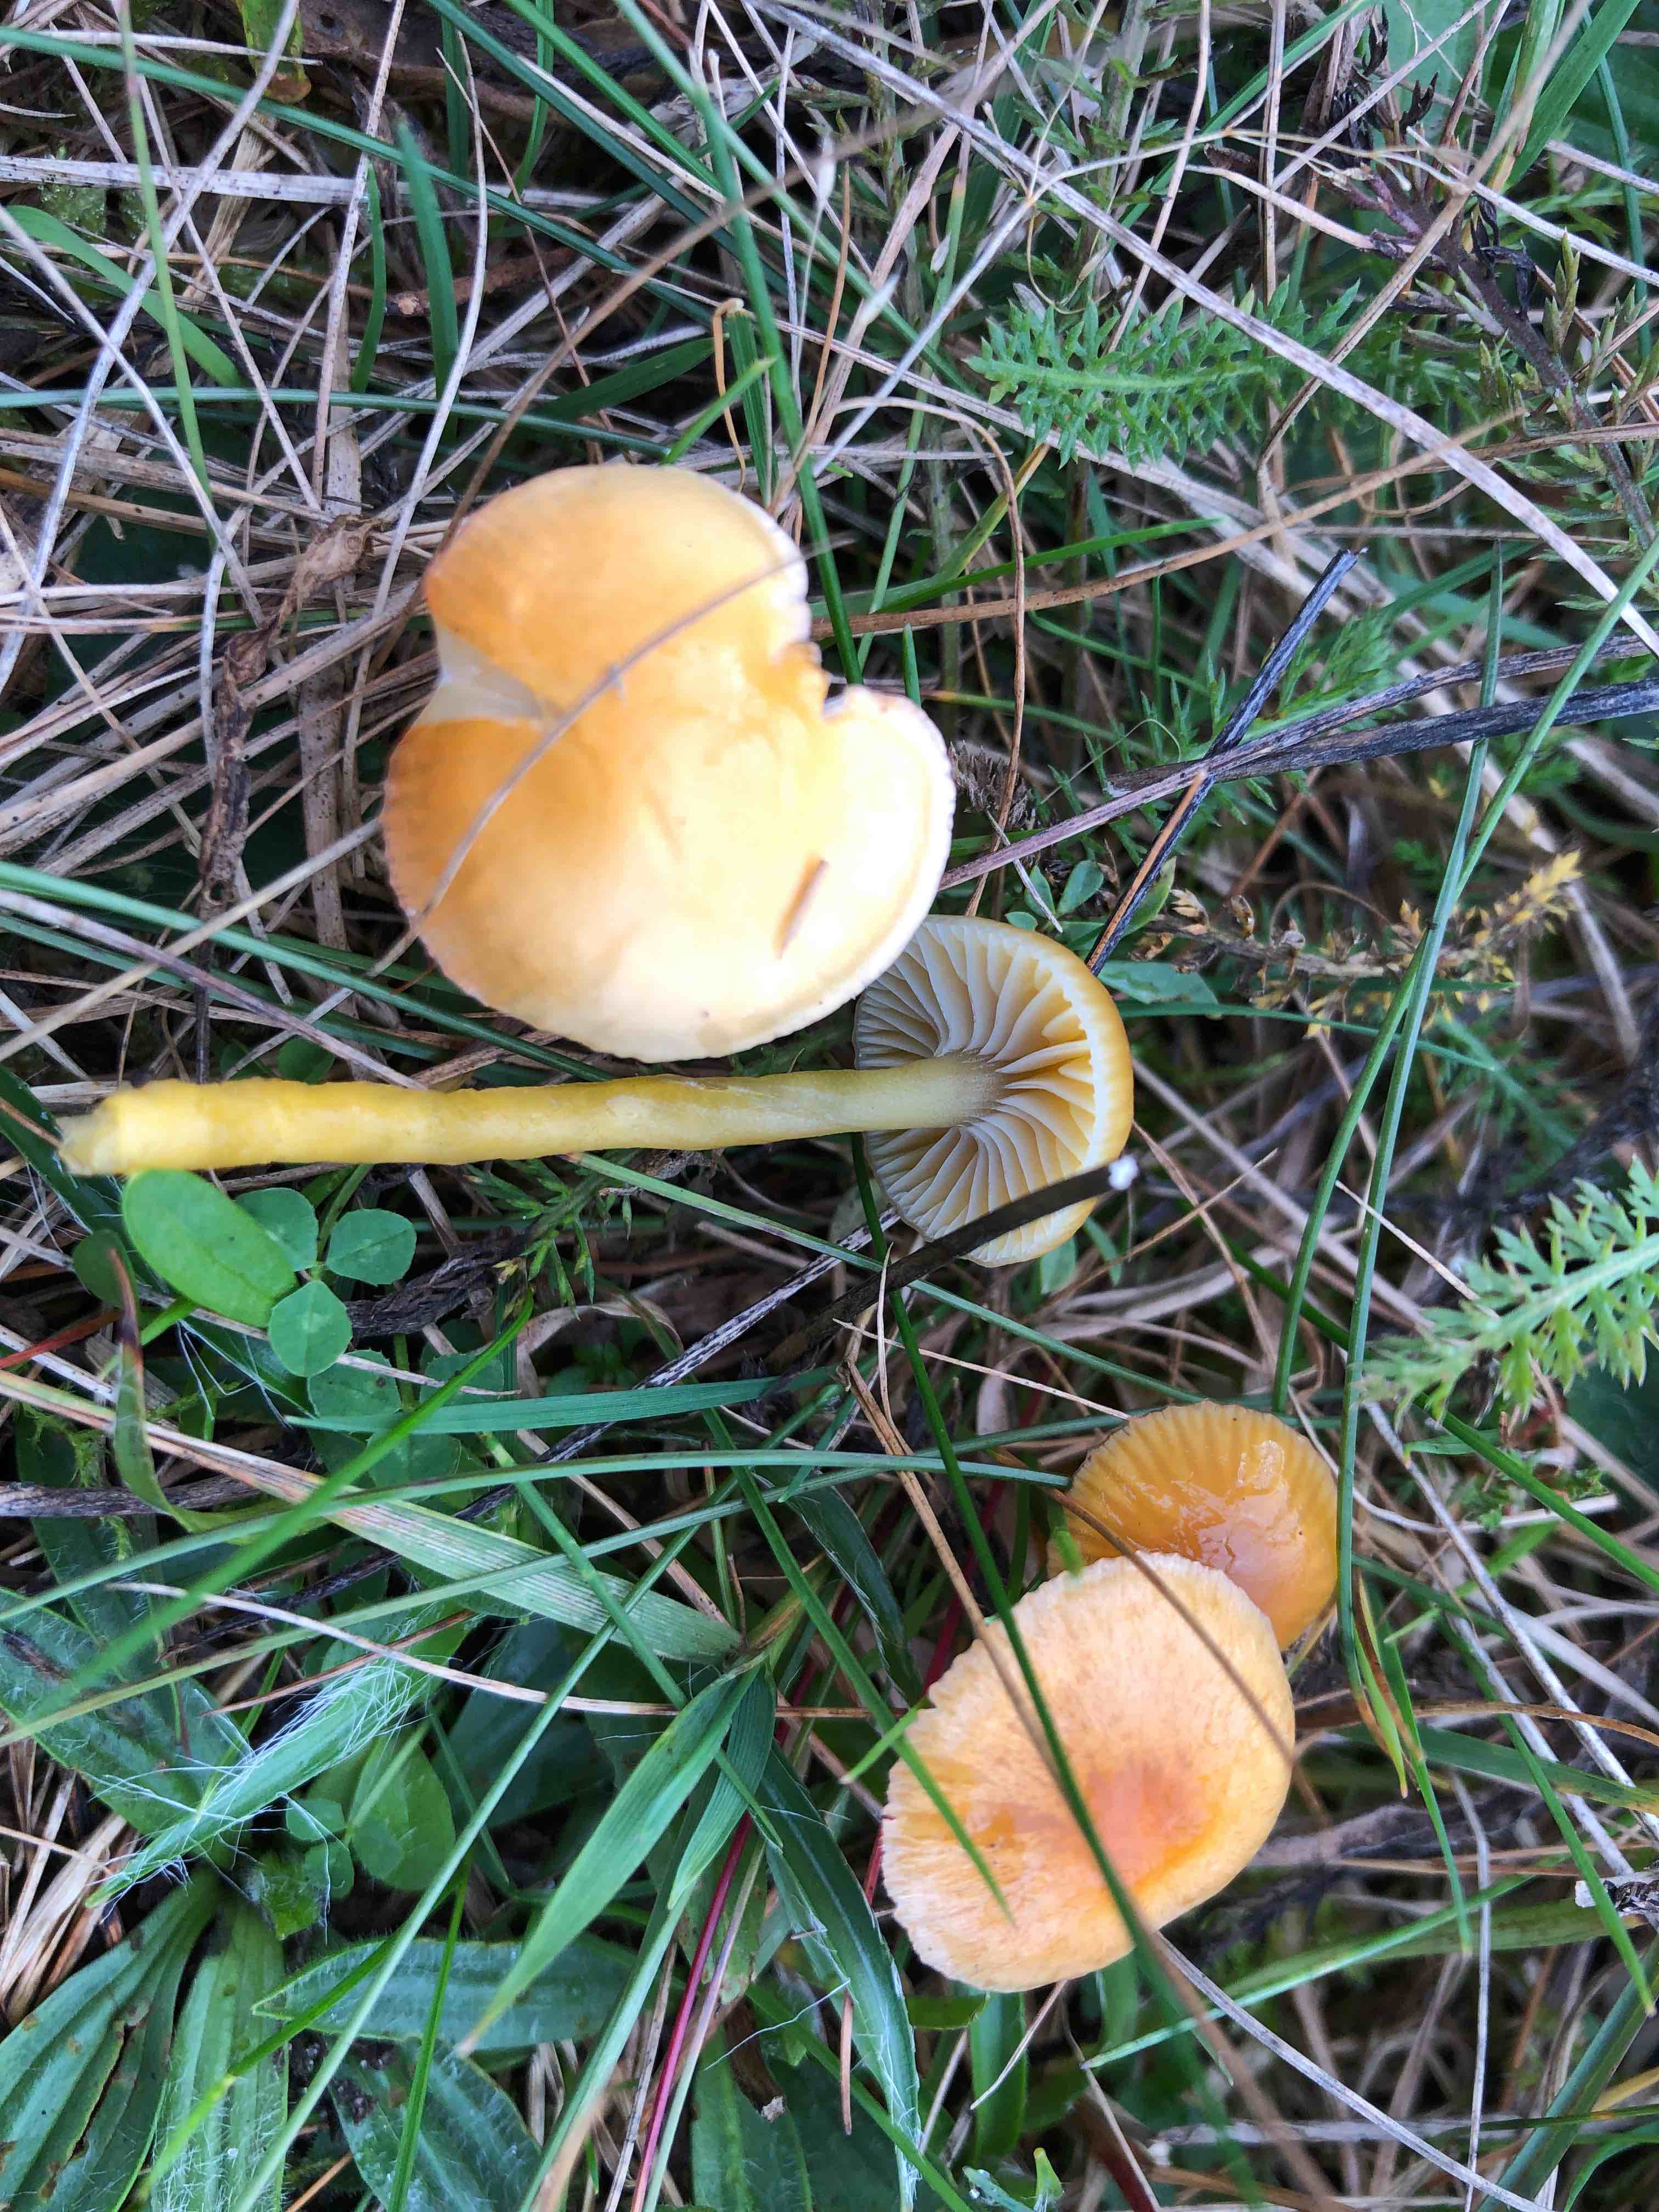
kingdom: Fungi
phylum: Basidiomycota
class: Agaricomycetes
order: Agaricales
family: Hygrophoraceae
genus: Gliophorus
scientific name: Gliophorus laetus
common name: brusk-vokshat
